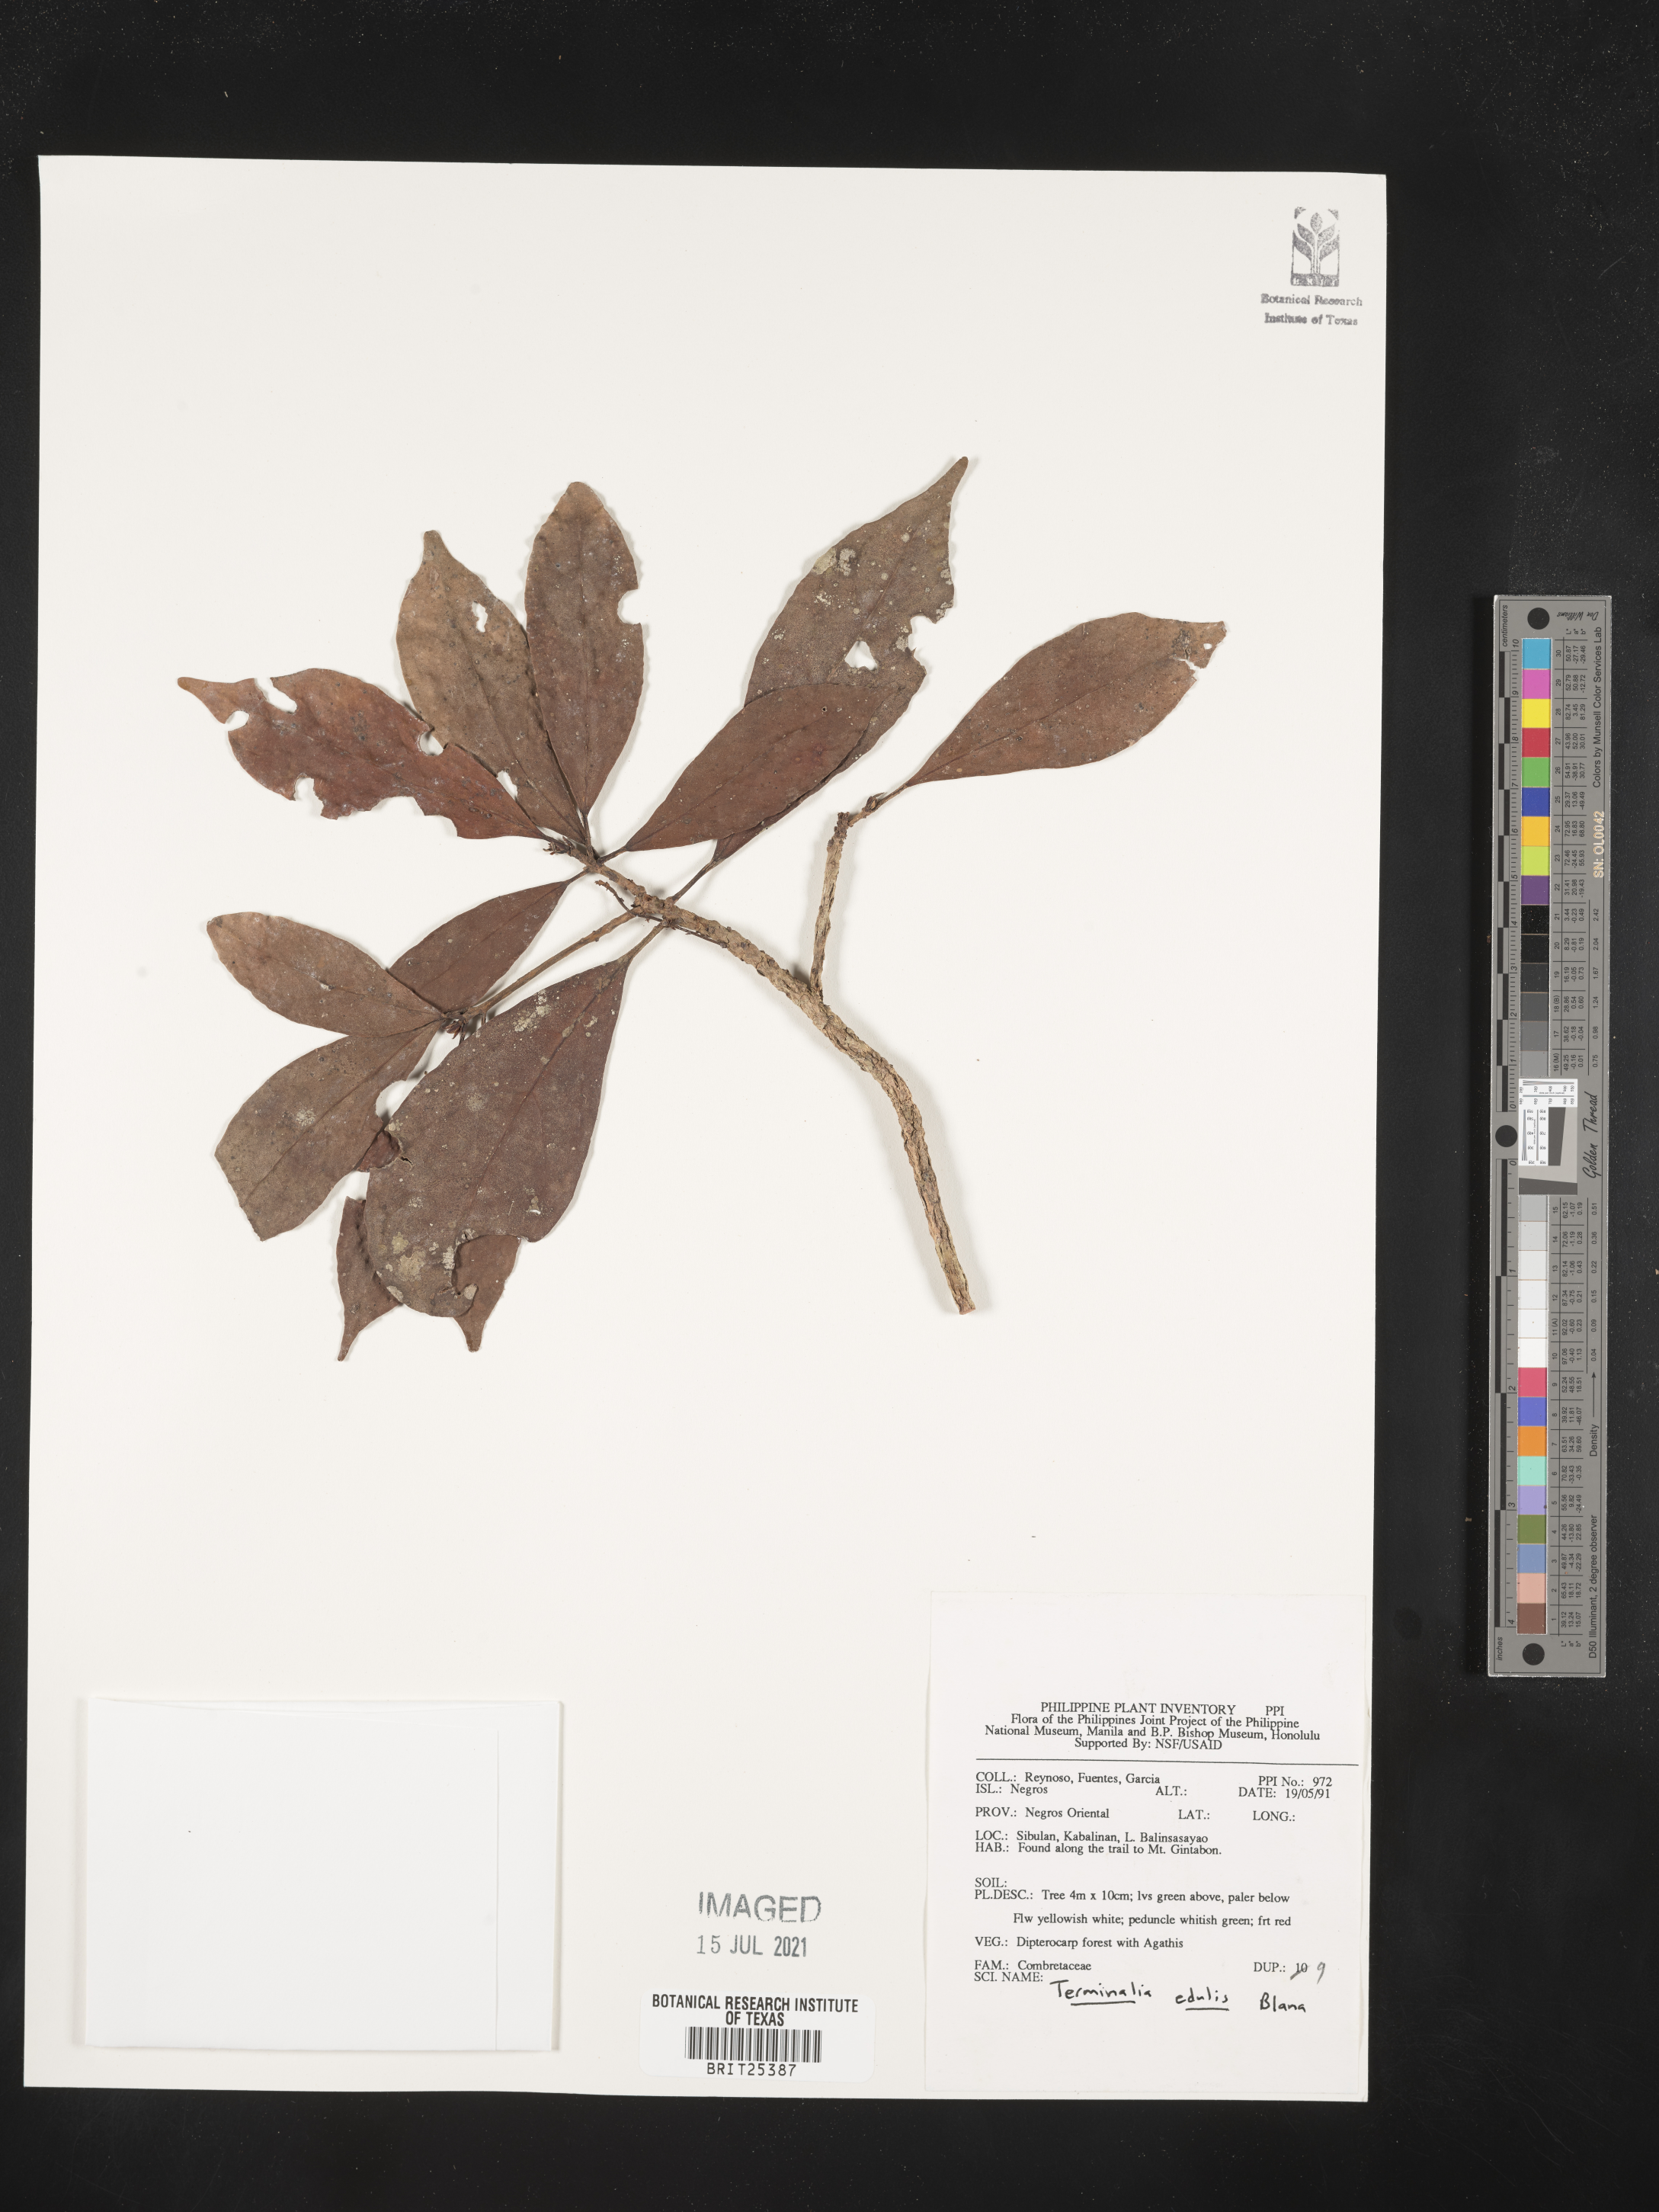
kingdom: Plantae
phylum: Tracheophyta
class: Magnoliopsida
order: Myrtales
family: Combretaceae
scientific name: Combretaceae
